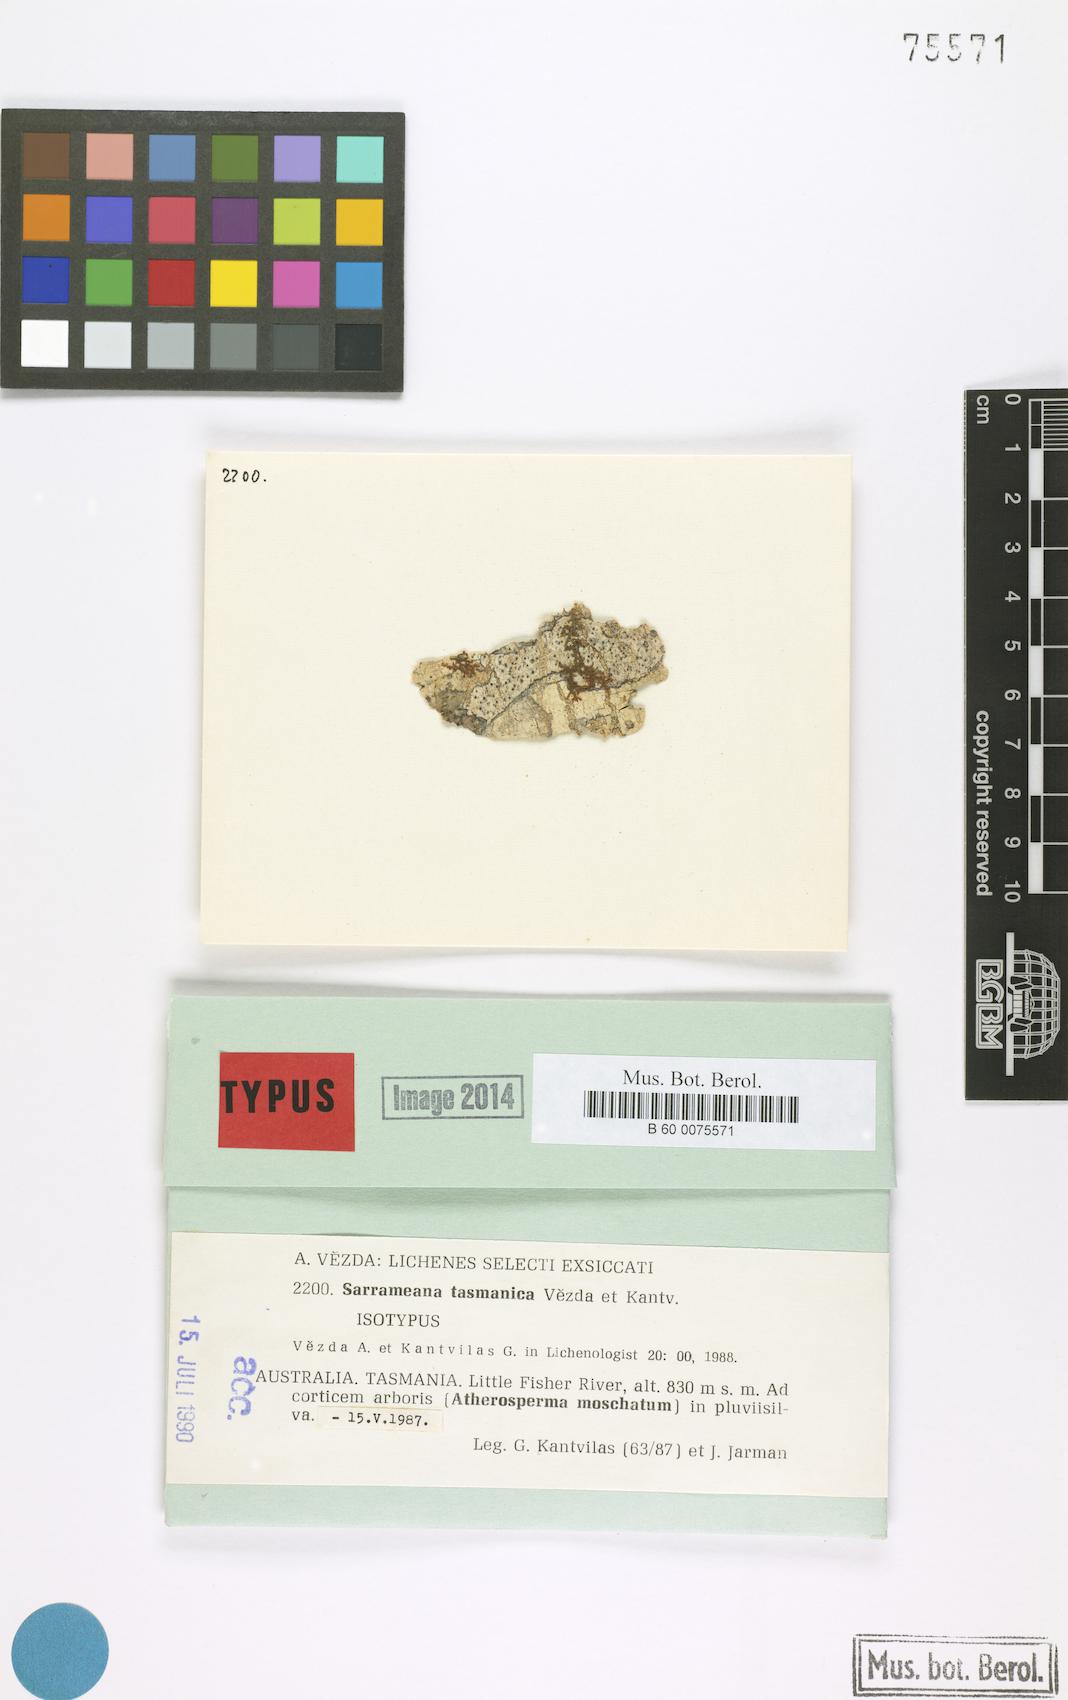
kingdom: Fungi
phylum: Ascomycota
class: Lecanoromycetes
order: Lecanorales
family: Sarrameanaceae
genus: Loxospora
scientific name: Loxospora solenospora
